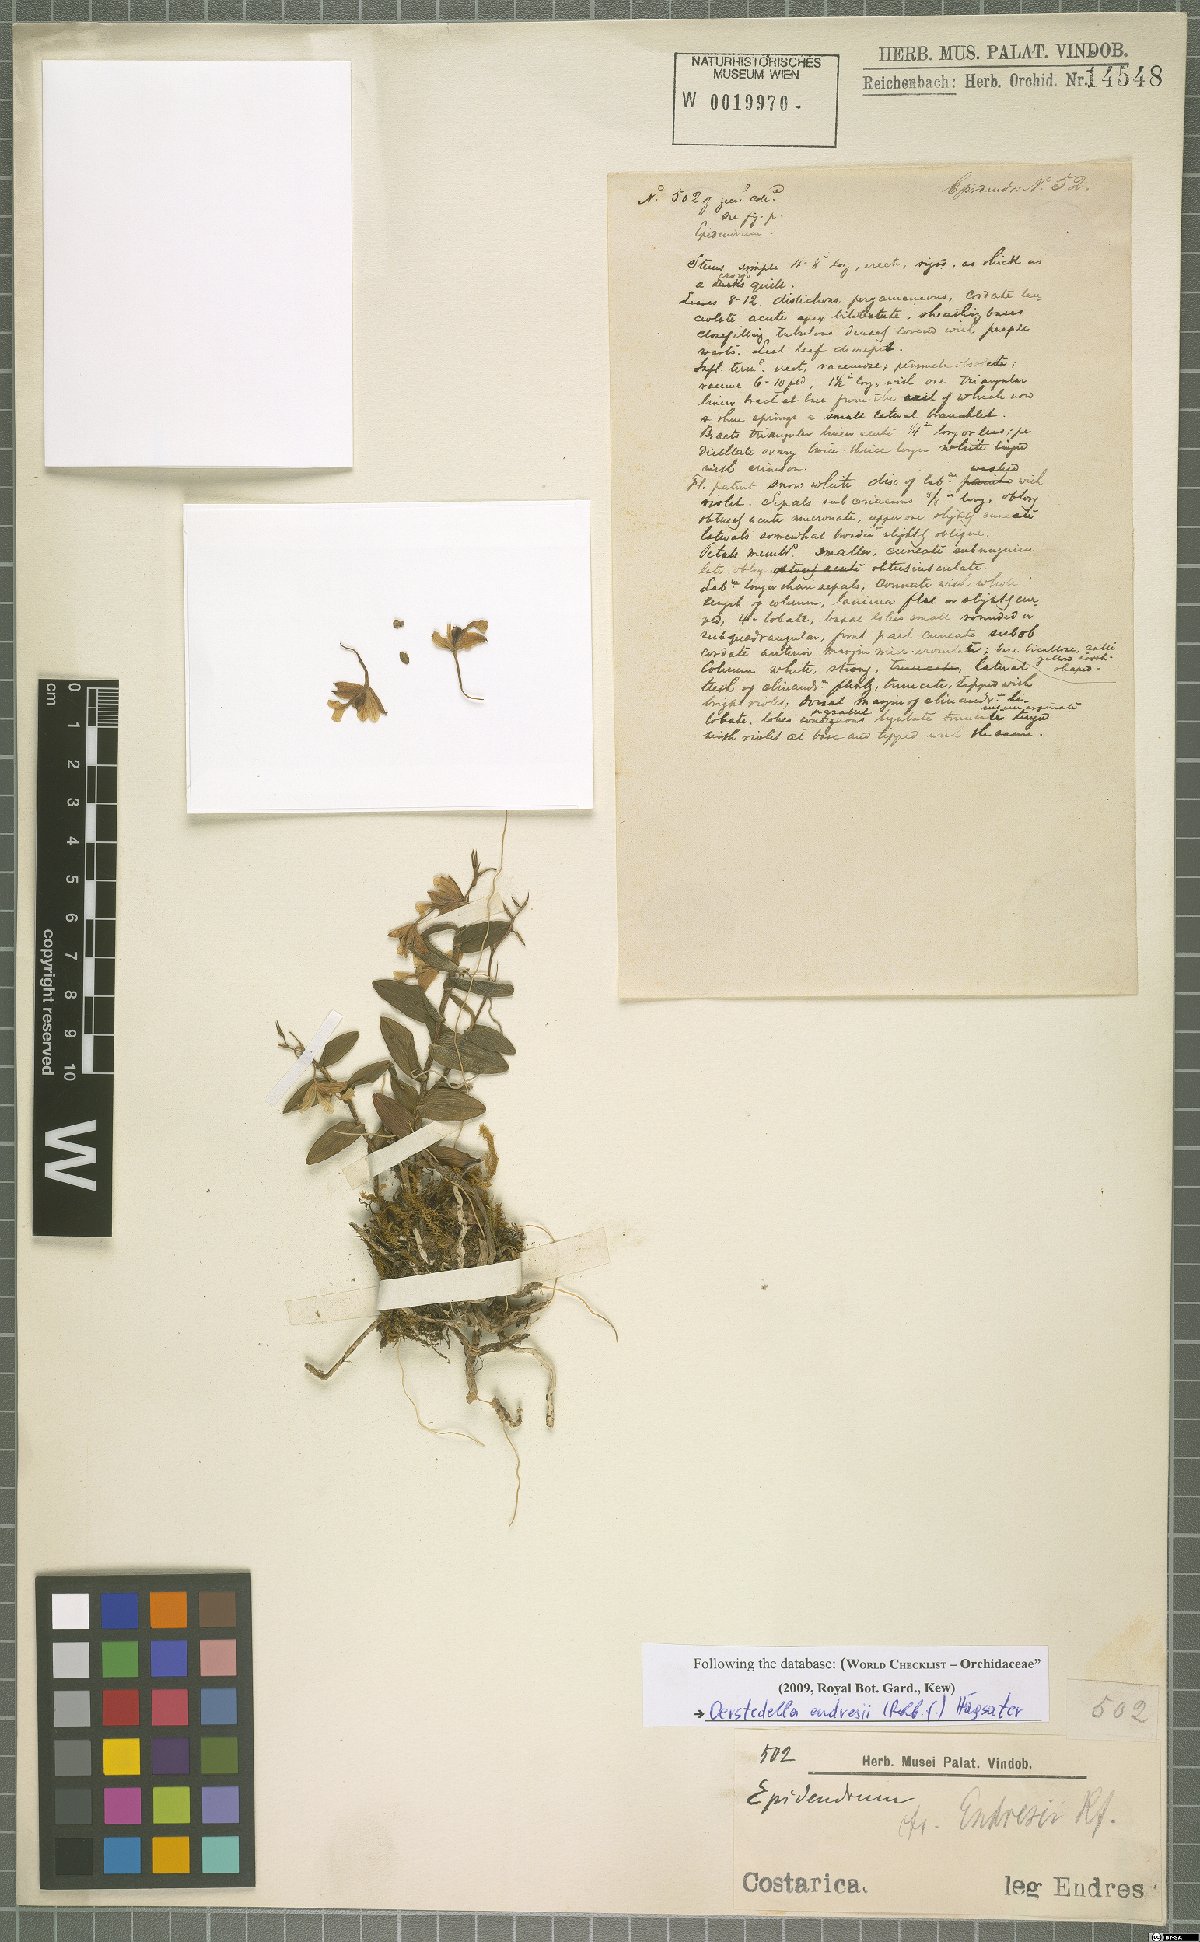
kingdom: Plantae
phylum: Tracheophyta
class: Liliopsida
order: Asparagales
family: Orchidaceae
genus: Epidendrum
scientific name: Epidendrum endresii
